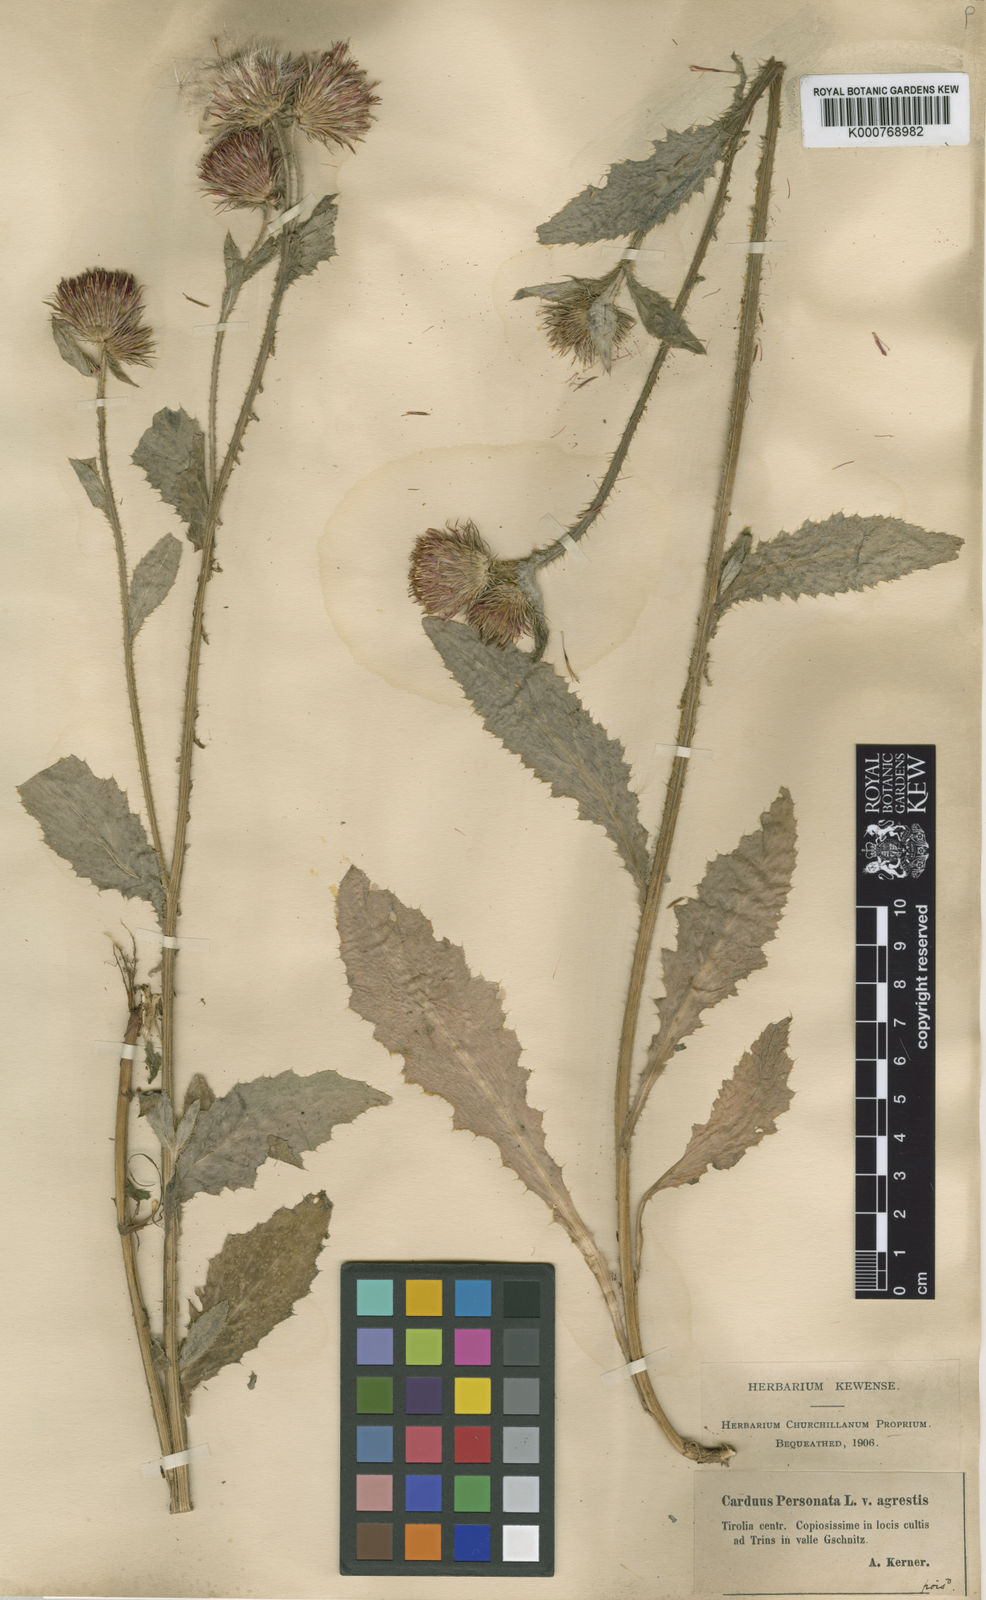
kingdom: Plantae
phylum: Tracheophyta
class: Magnoliopsida
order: Asterales
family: Asteraceae
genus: Carduus
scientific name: Carduus crispus
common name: Welted thistle
